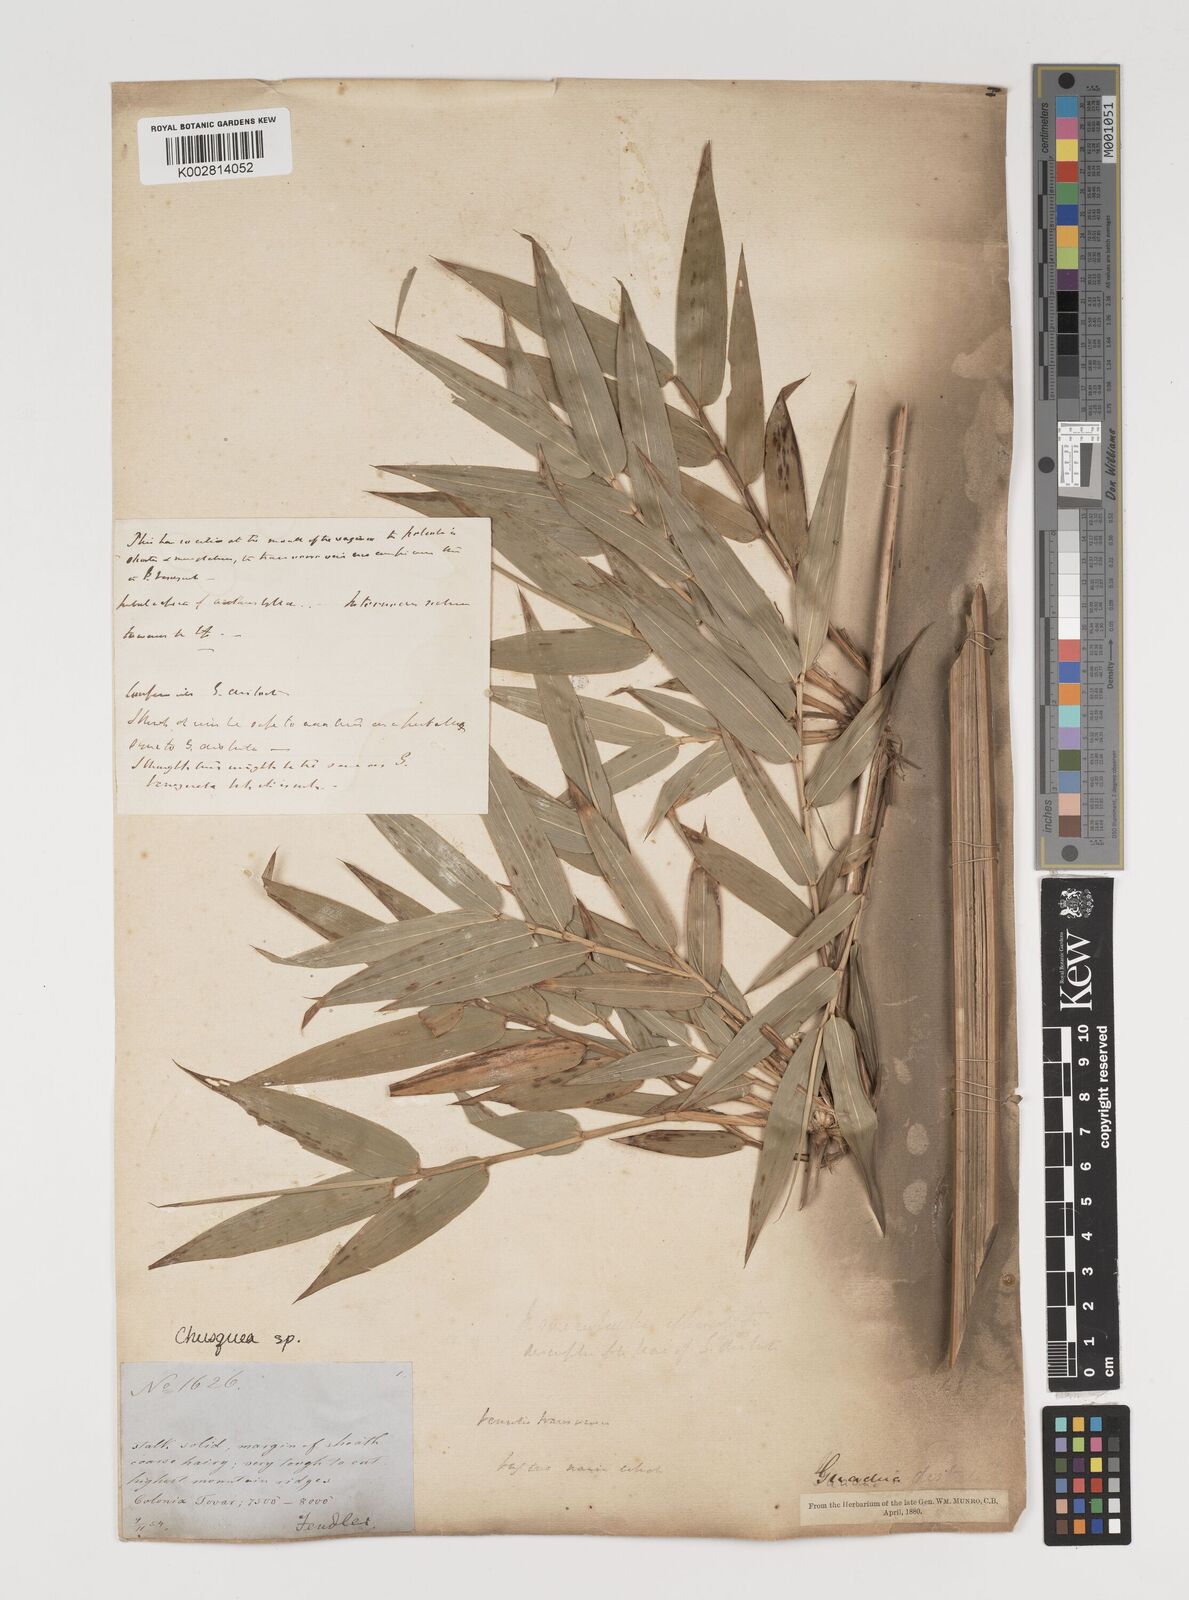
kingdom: Plantae
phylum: Tracheophyta
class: Liliopsida
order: Poales
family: Poaceae
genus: Chusquea
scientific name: Chusquea
